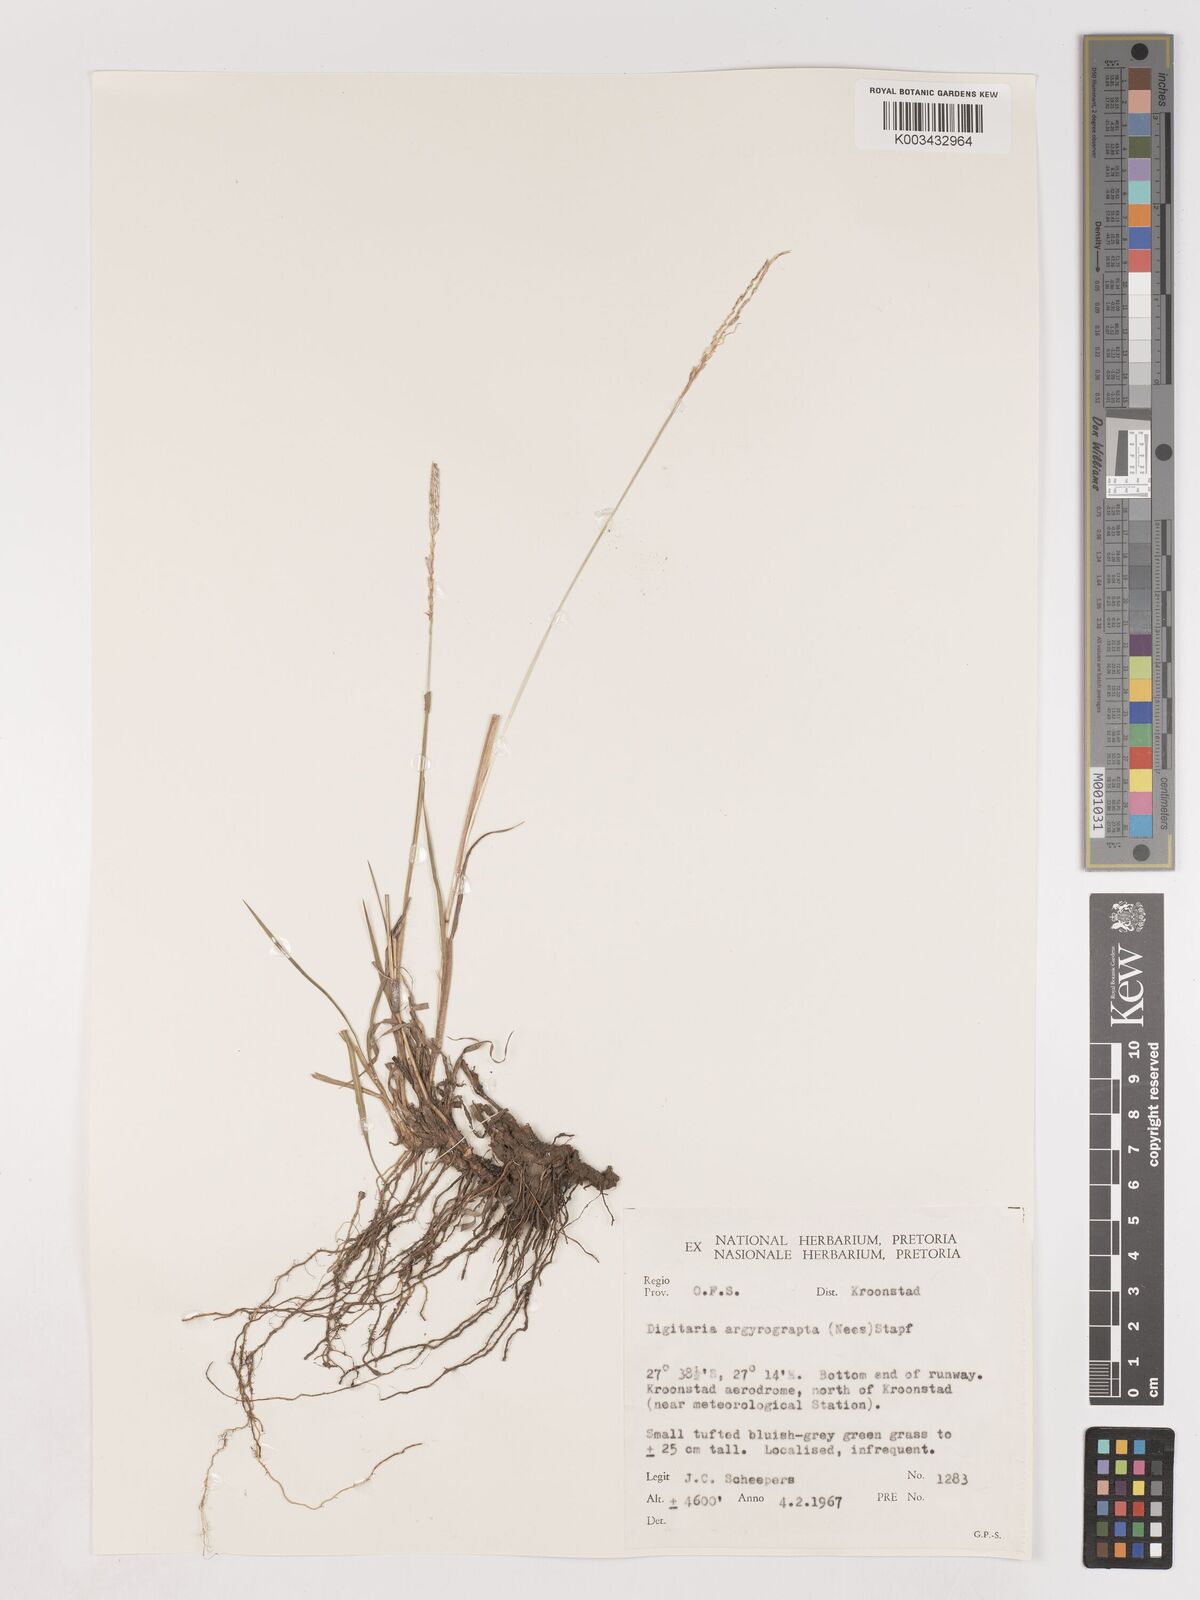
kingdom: Plantae
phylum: Tracheophyta
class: Liliopsida
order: Poales
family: Poaceae
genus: Digitaria
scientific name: Digitaria argyrograpta
